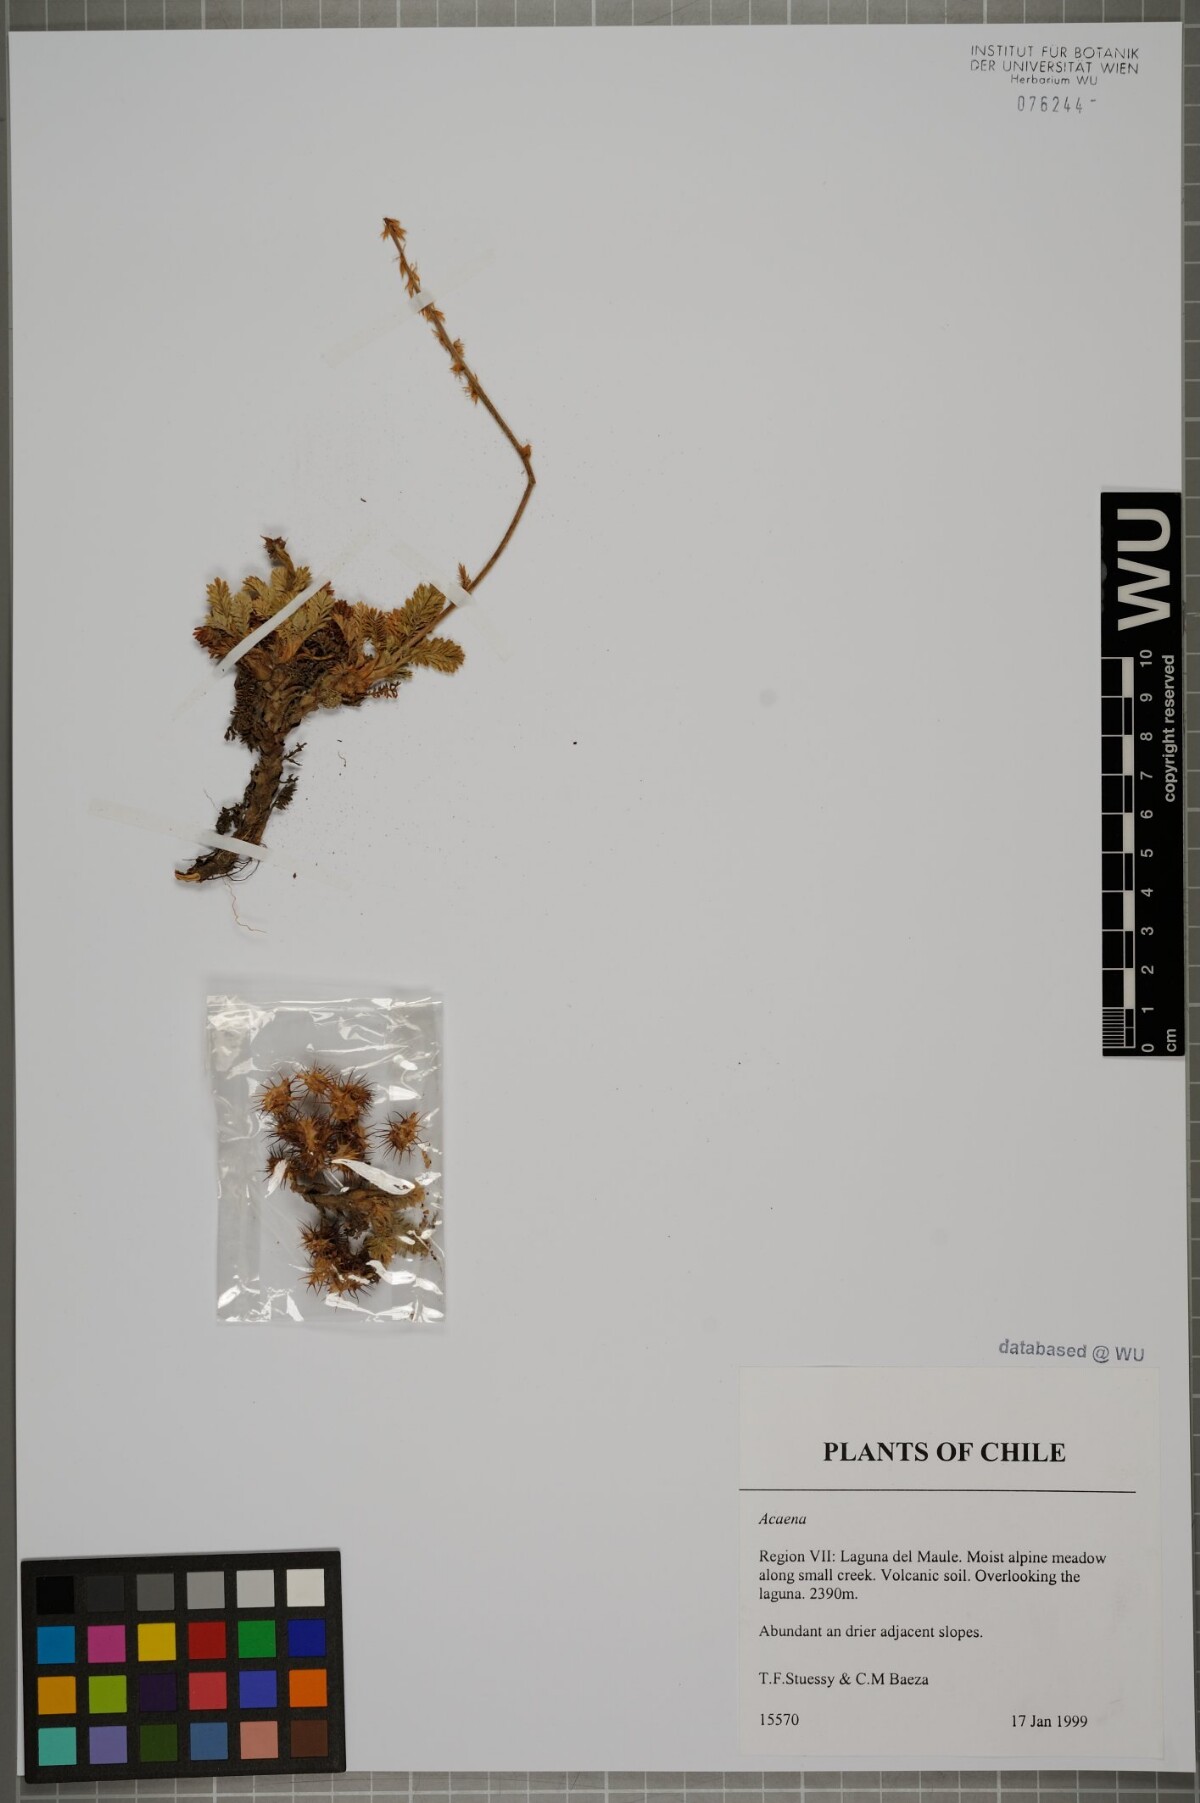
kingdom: Plantae
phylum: Tracheophyta
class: Magnoliopsida
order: Rosales
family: Rosaceae
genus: Acaena
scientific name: Acaena
